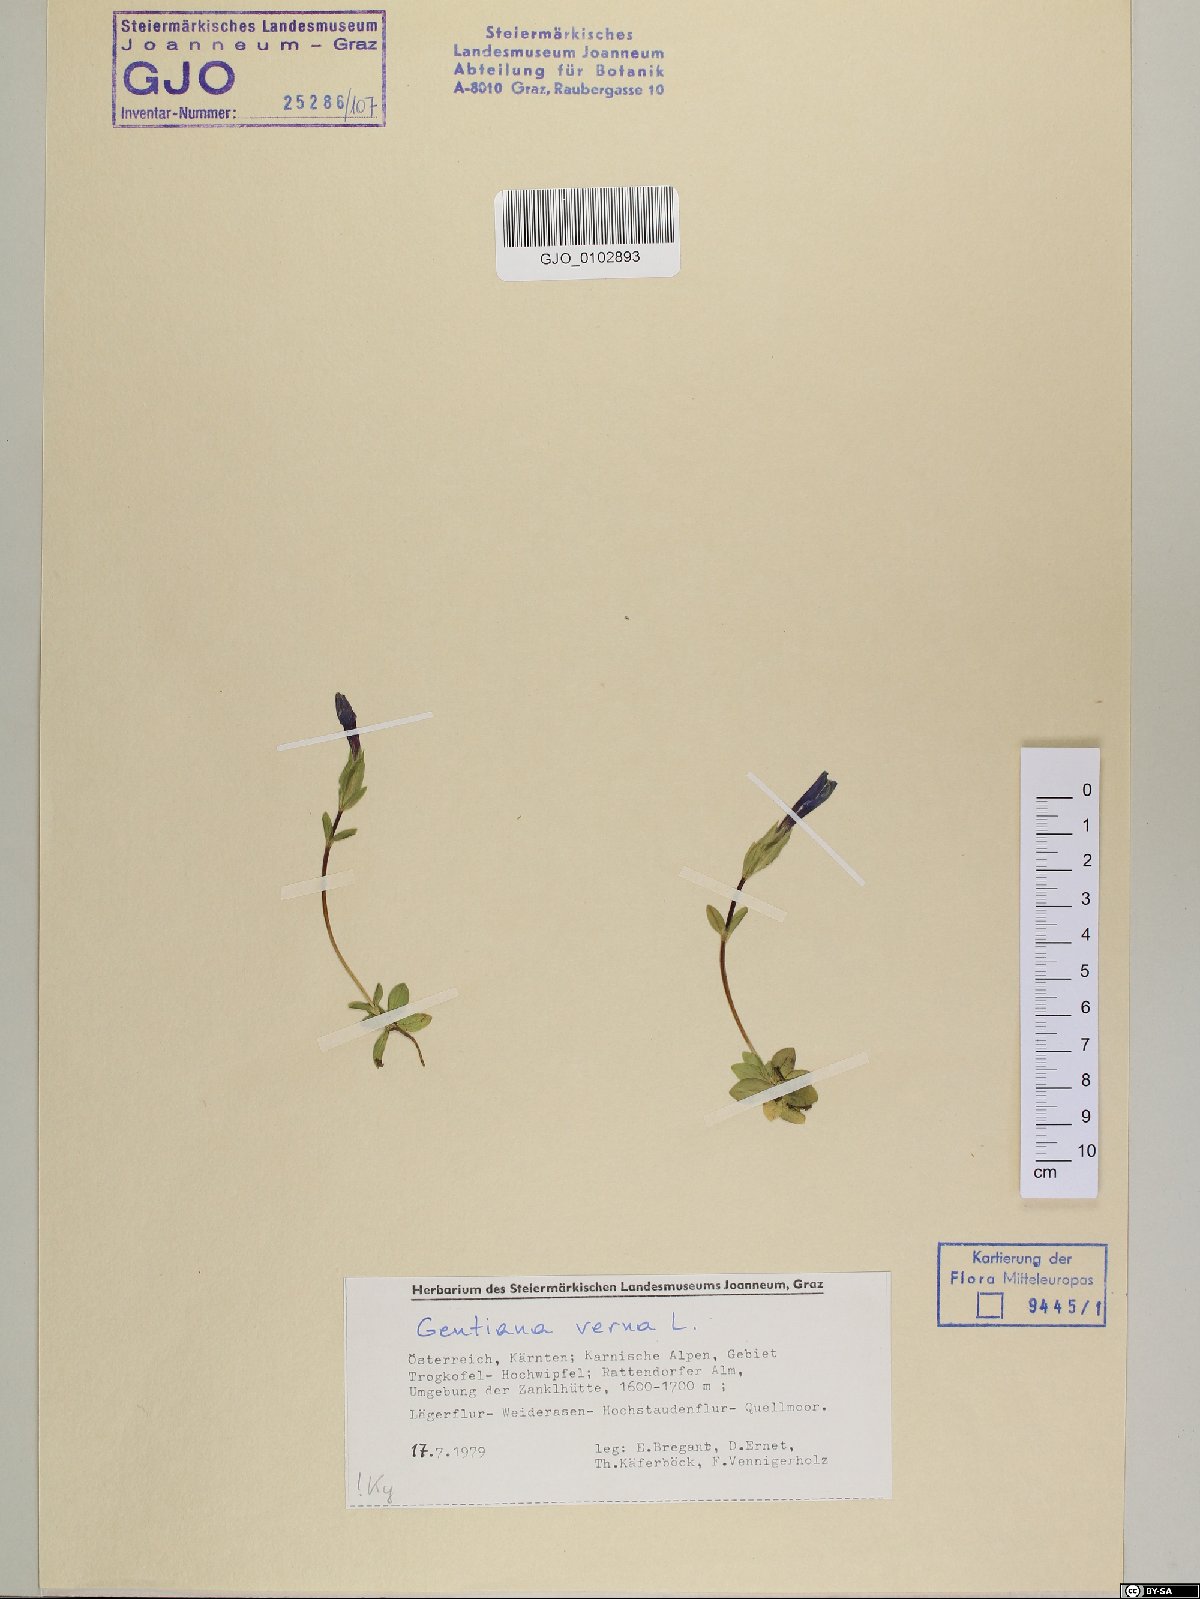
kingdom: Plantae
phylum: Tracheophyta
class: Magnoliopsida
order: Gentianales
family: Gentianaceae
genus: Gentiana
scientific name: Gentiana verna
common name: Spring gentian
